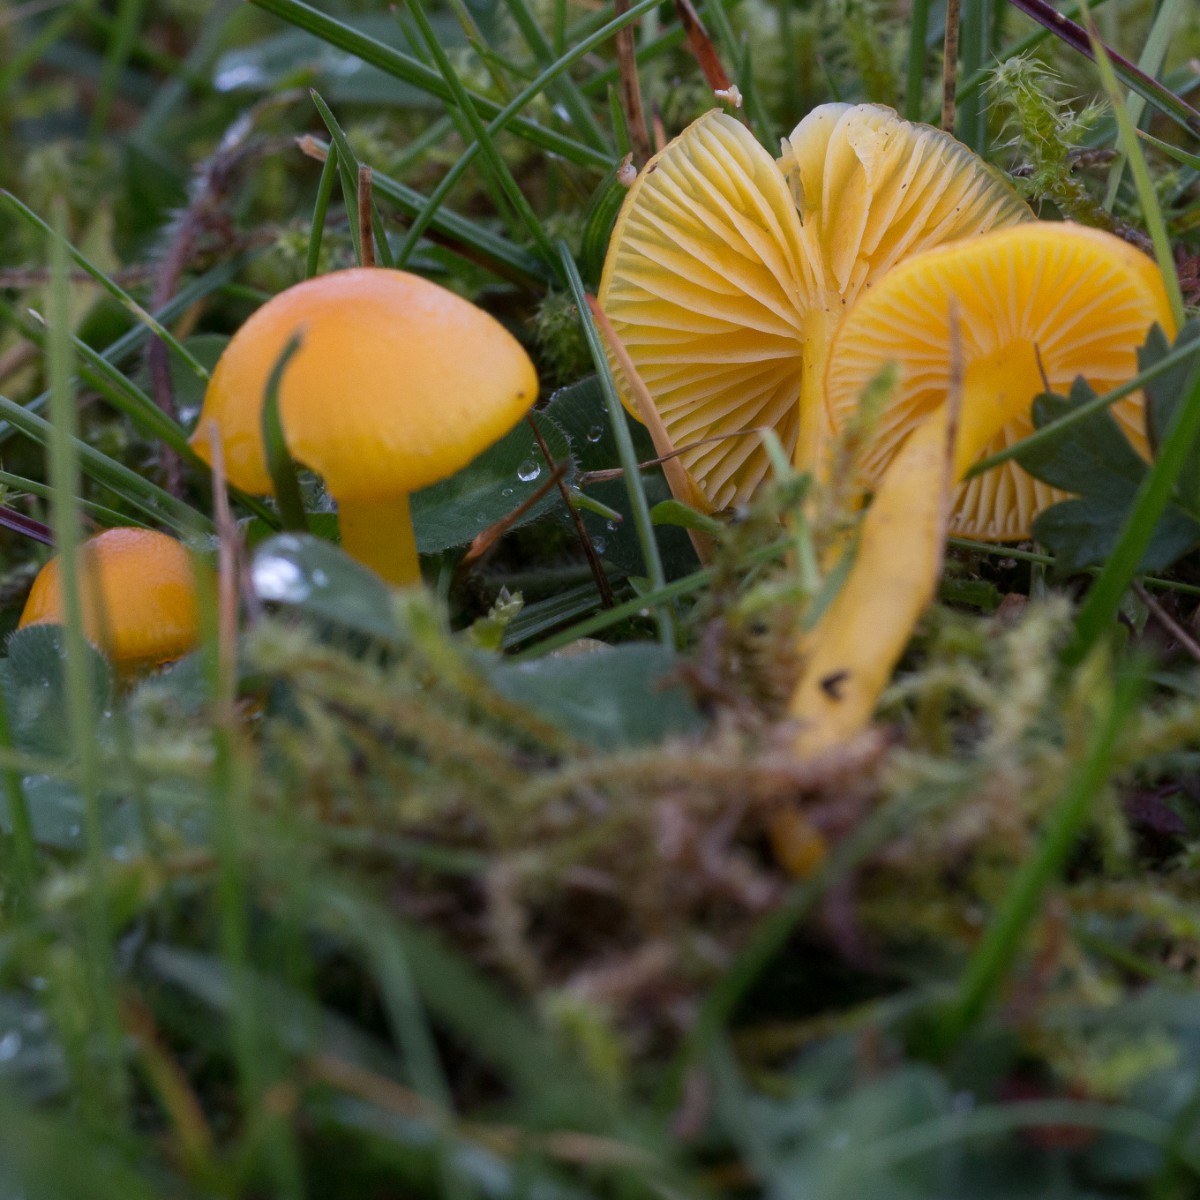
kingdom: Fungi
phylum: Basidiomycota
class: Agaricomycetes
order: Agaricales
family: Hygrophoraceae
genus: Hygrocybe
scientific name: Hygrocybe ceracea
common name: voksgul vokshat
